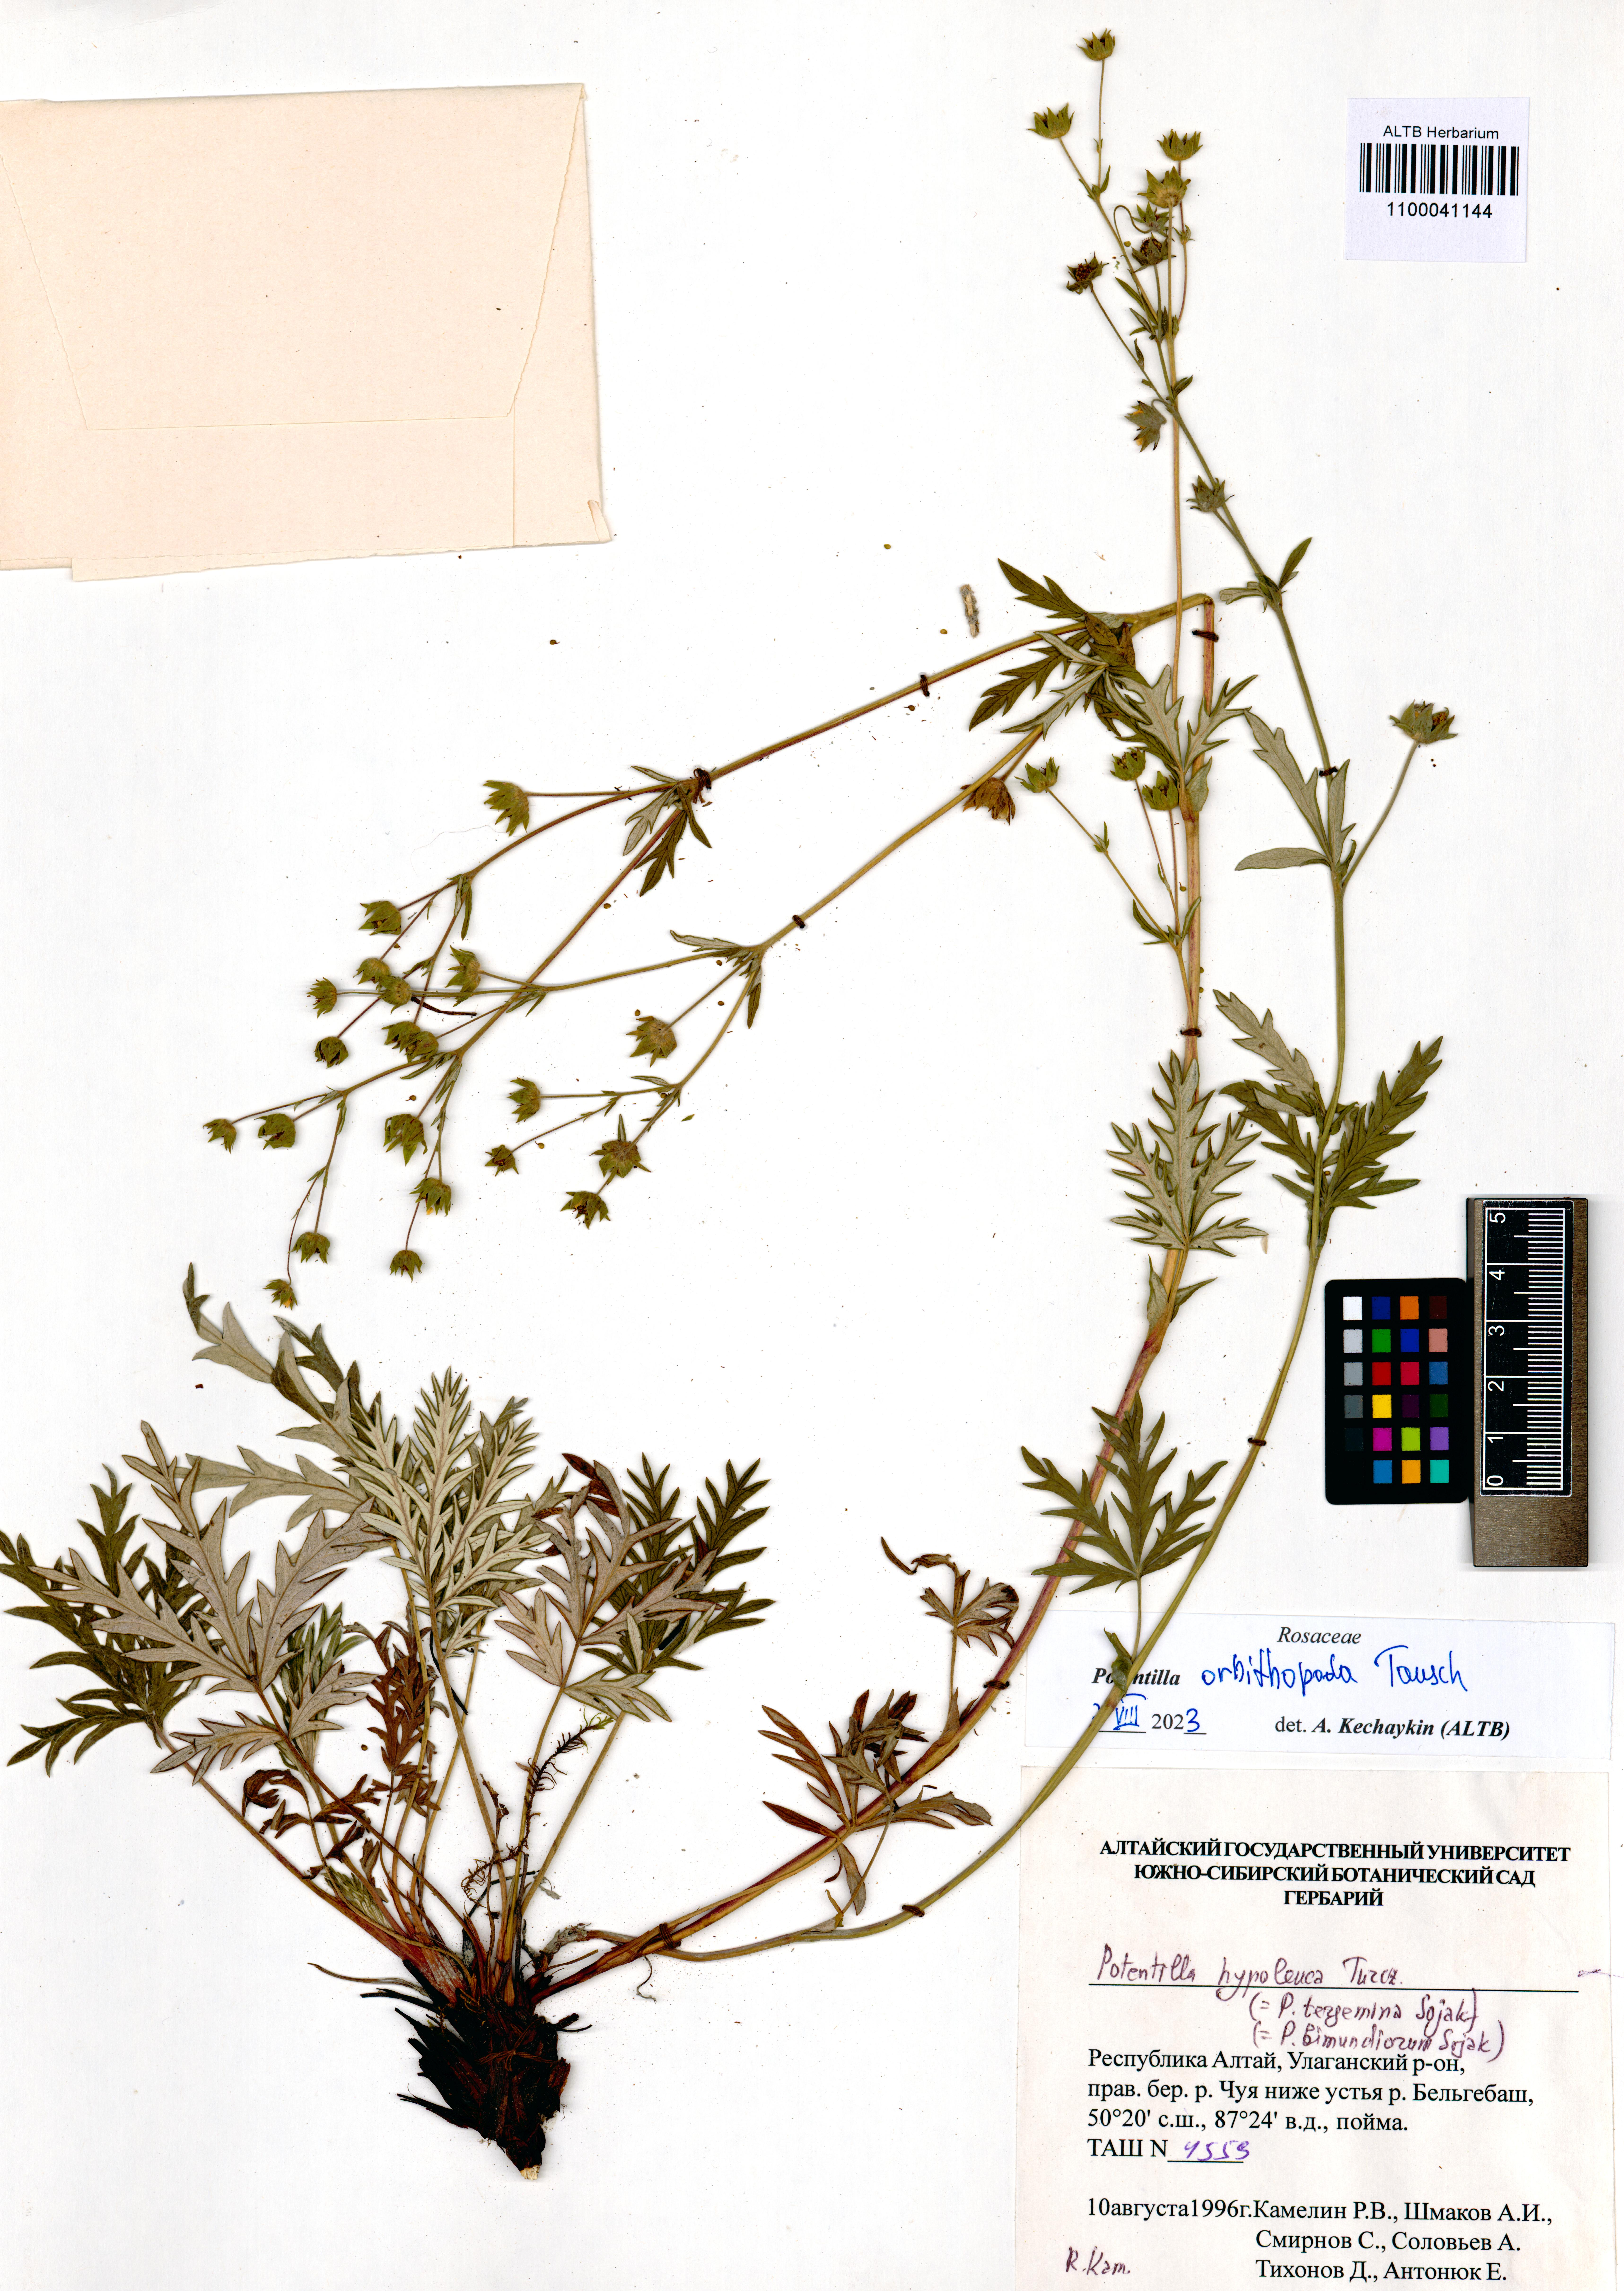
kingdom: Plantae
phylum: Tracheophyta
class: Magnoliopsida
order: Rosales
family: Rosaceae
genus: Potentilla
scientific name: Potentilla ornithopoda
